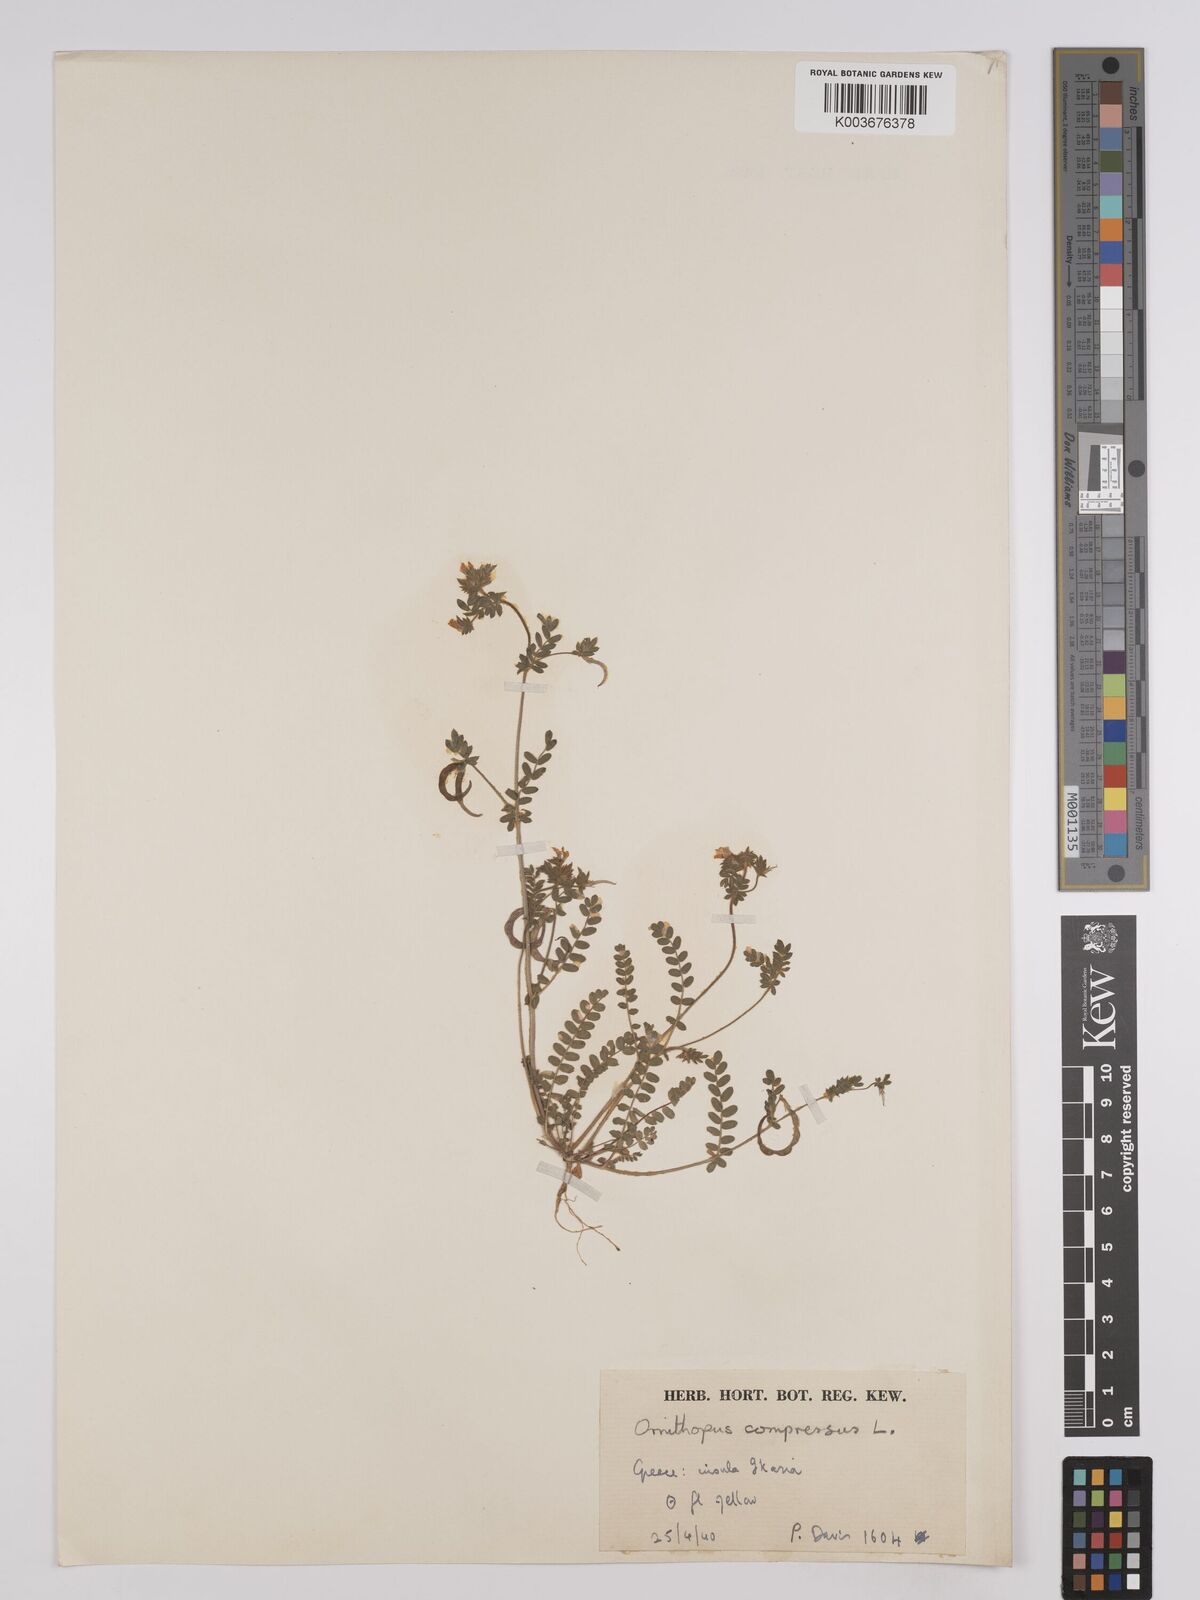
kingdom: Plantae
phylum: Tracheophyta
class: Magnoliopsida
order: Fabales
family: Fabaceae
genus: Ornithopus
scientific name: Ornithopus compressus
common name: Yellow serradella
